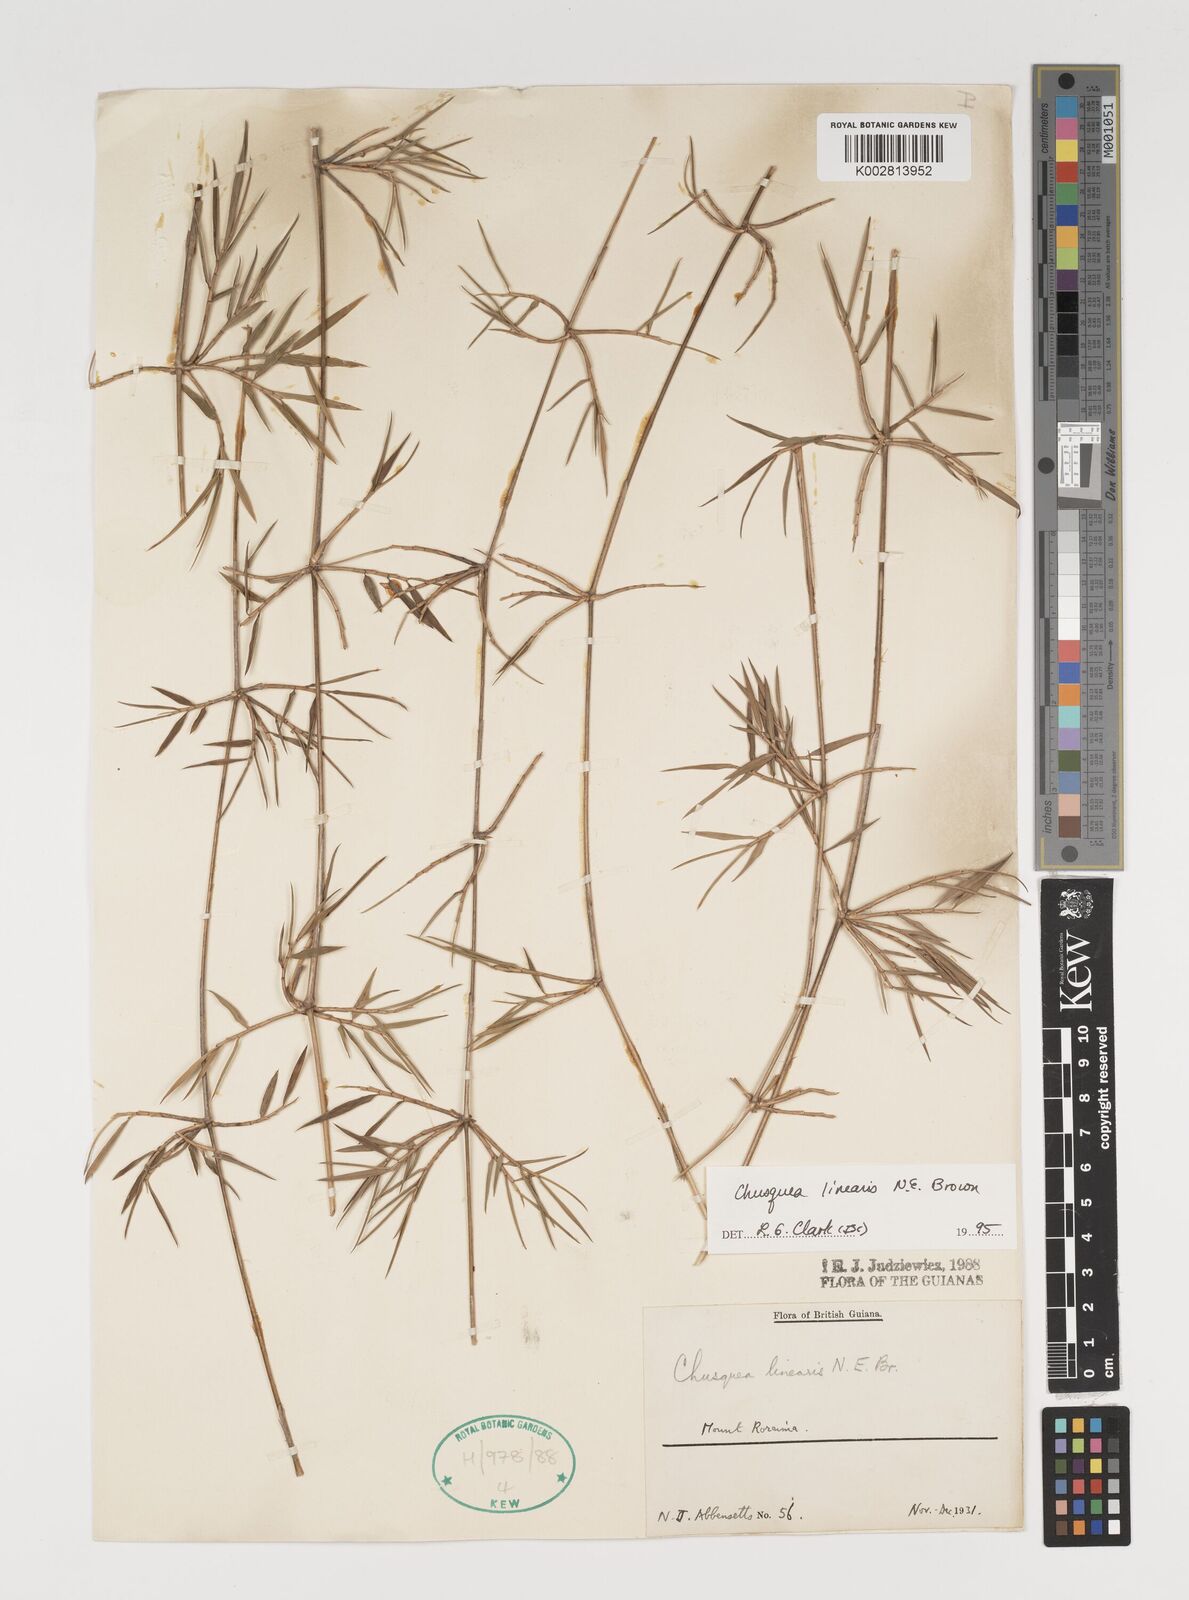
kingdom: Plantae
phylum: Tracheophyta
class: Liliopsida
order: Poales
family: Poaceae
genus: Chusquea
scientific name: Chusquea linearis
